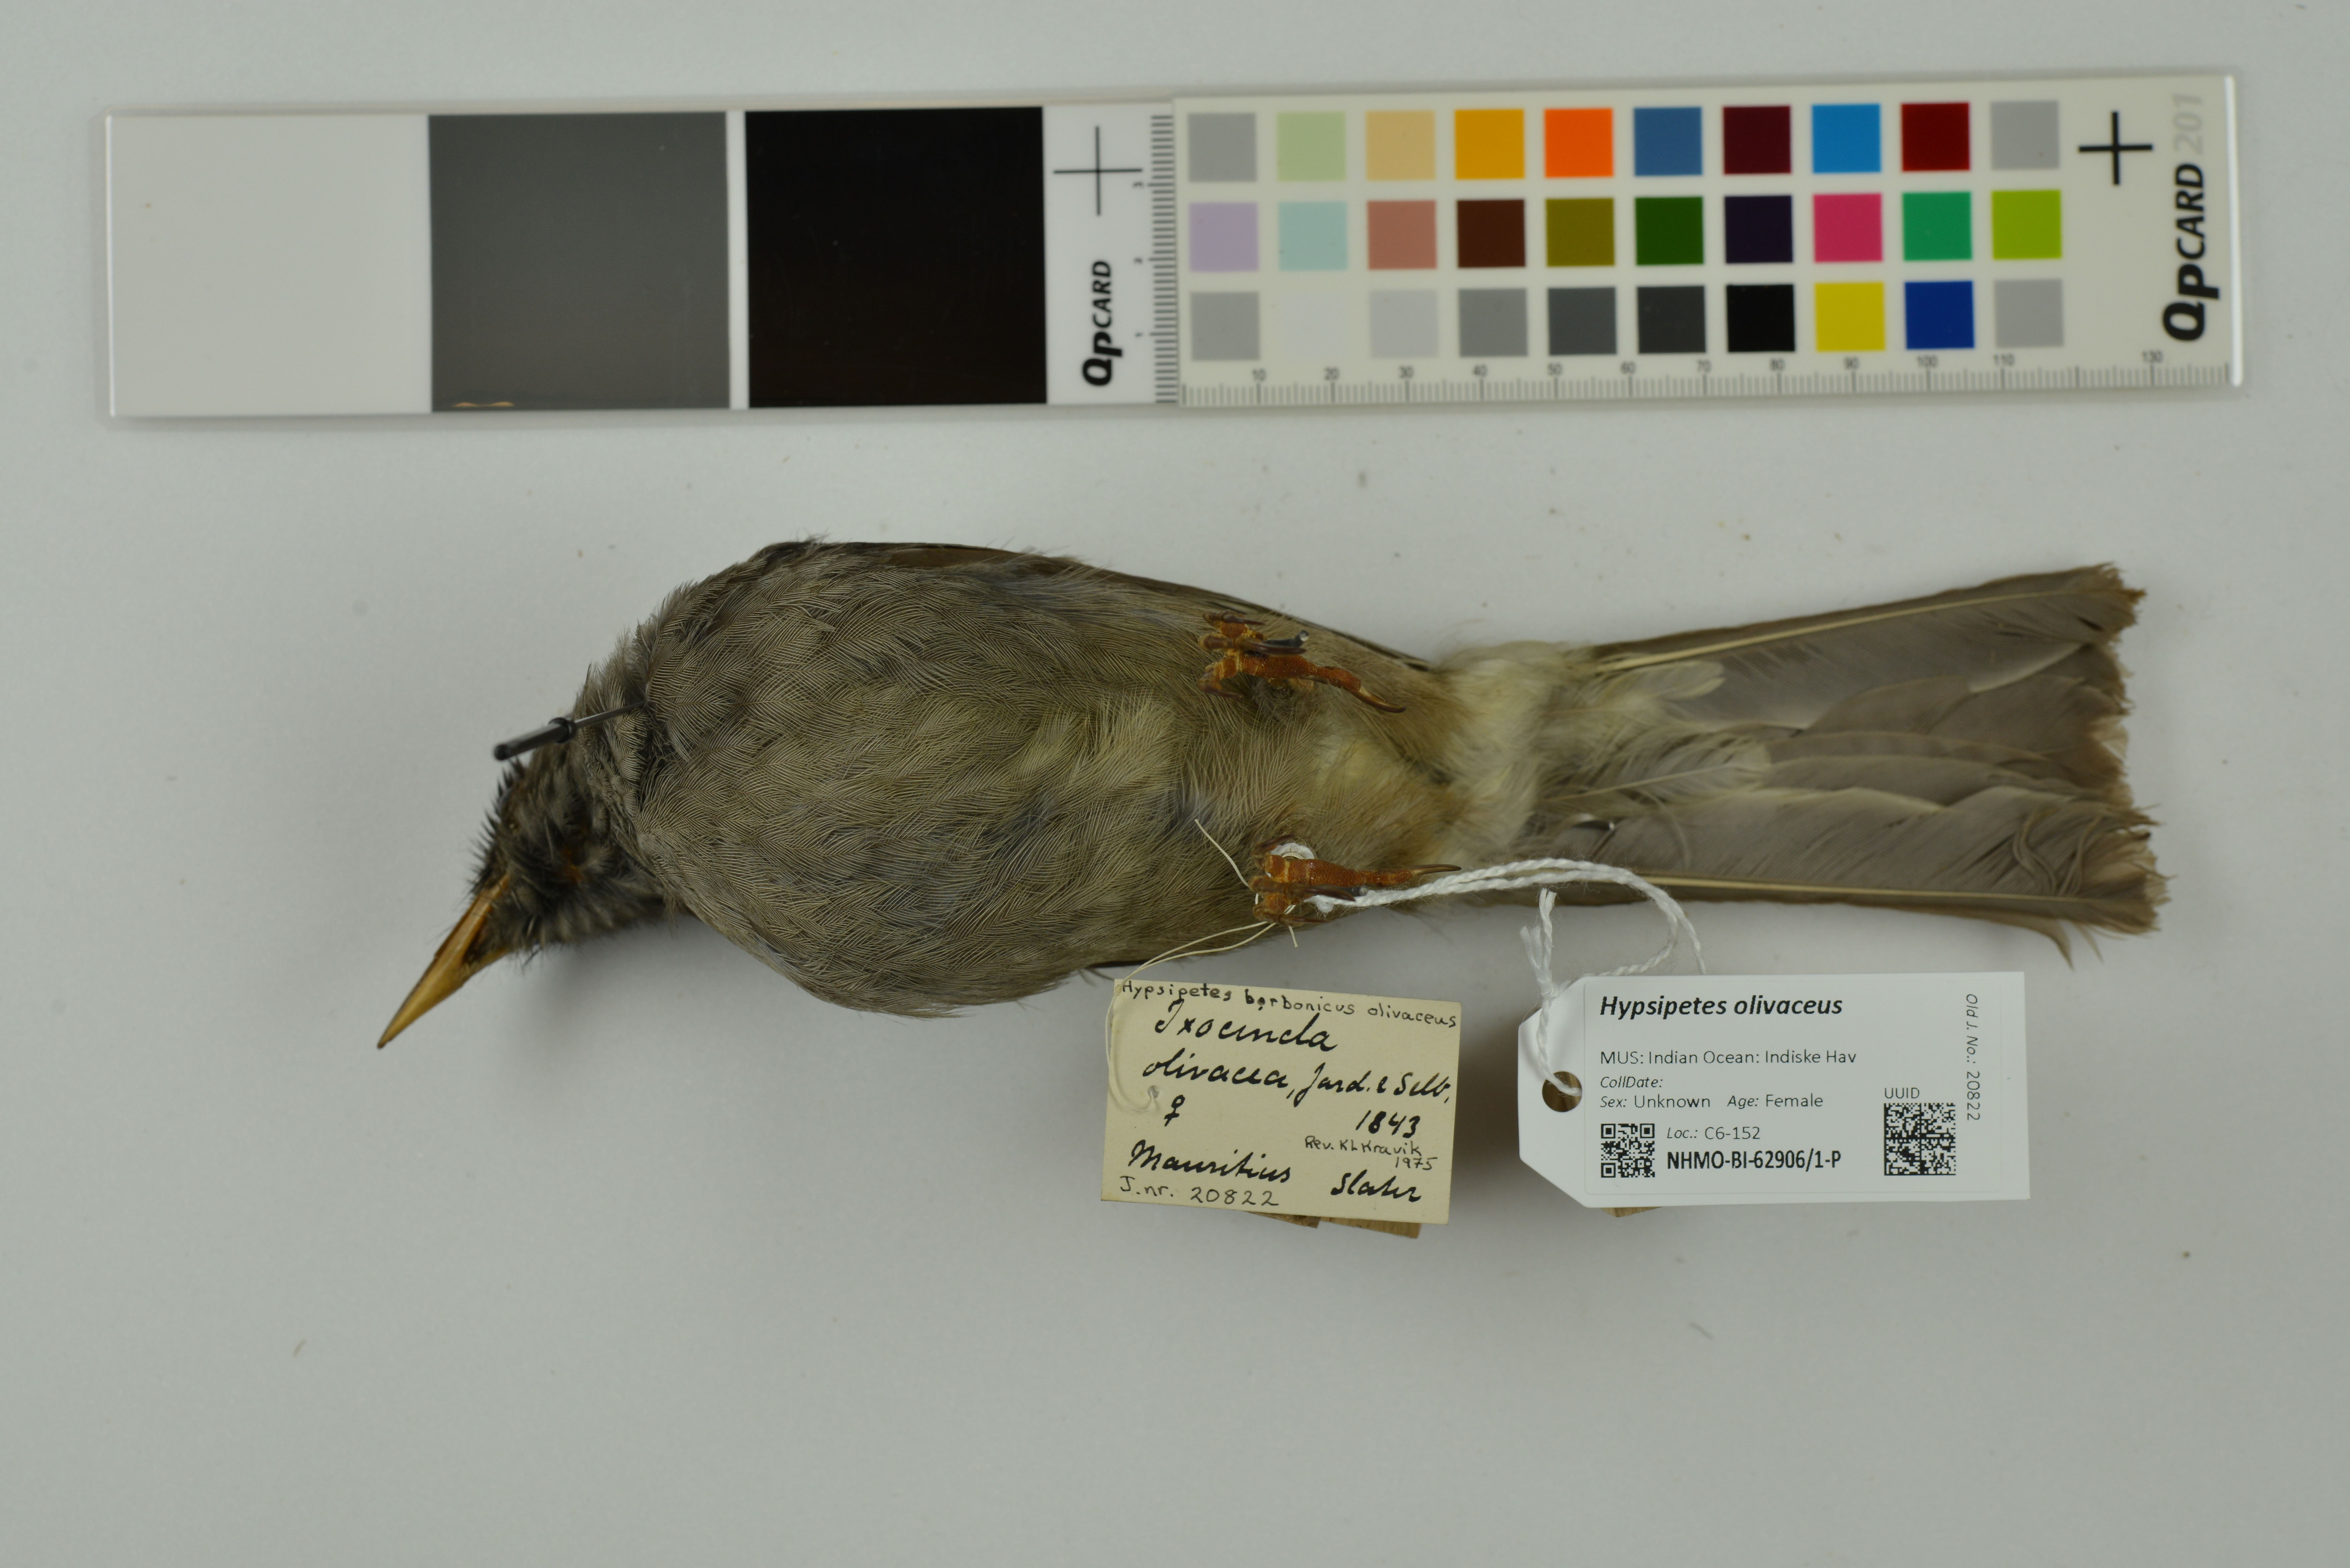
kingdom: Animalia
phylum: Chordata
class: Aves
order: Passeriformes
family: Pycnonotidae
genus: Hypsipetes
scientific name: Hypsipetes olivaceus
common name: Mauritius bulbul
